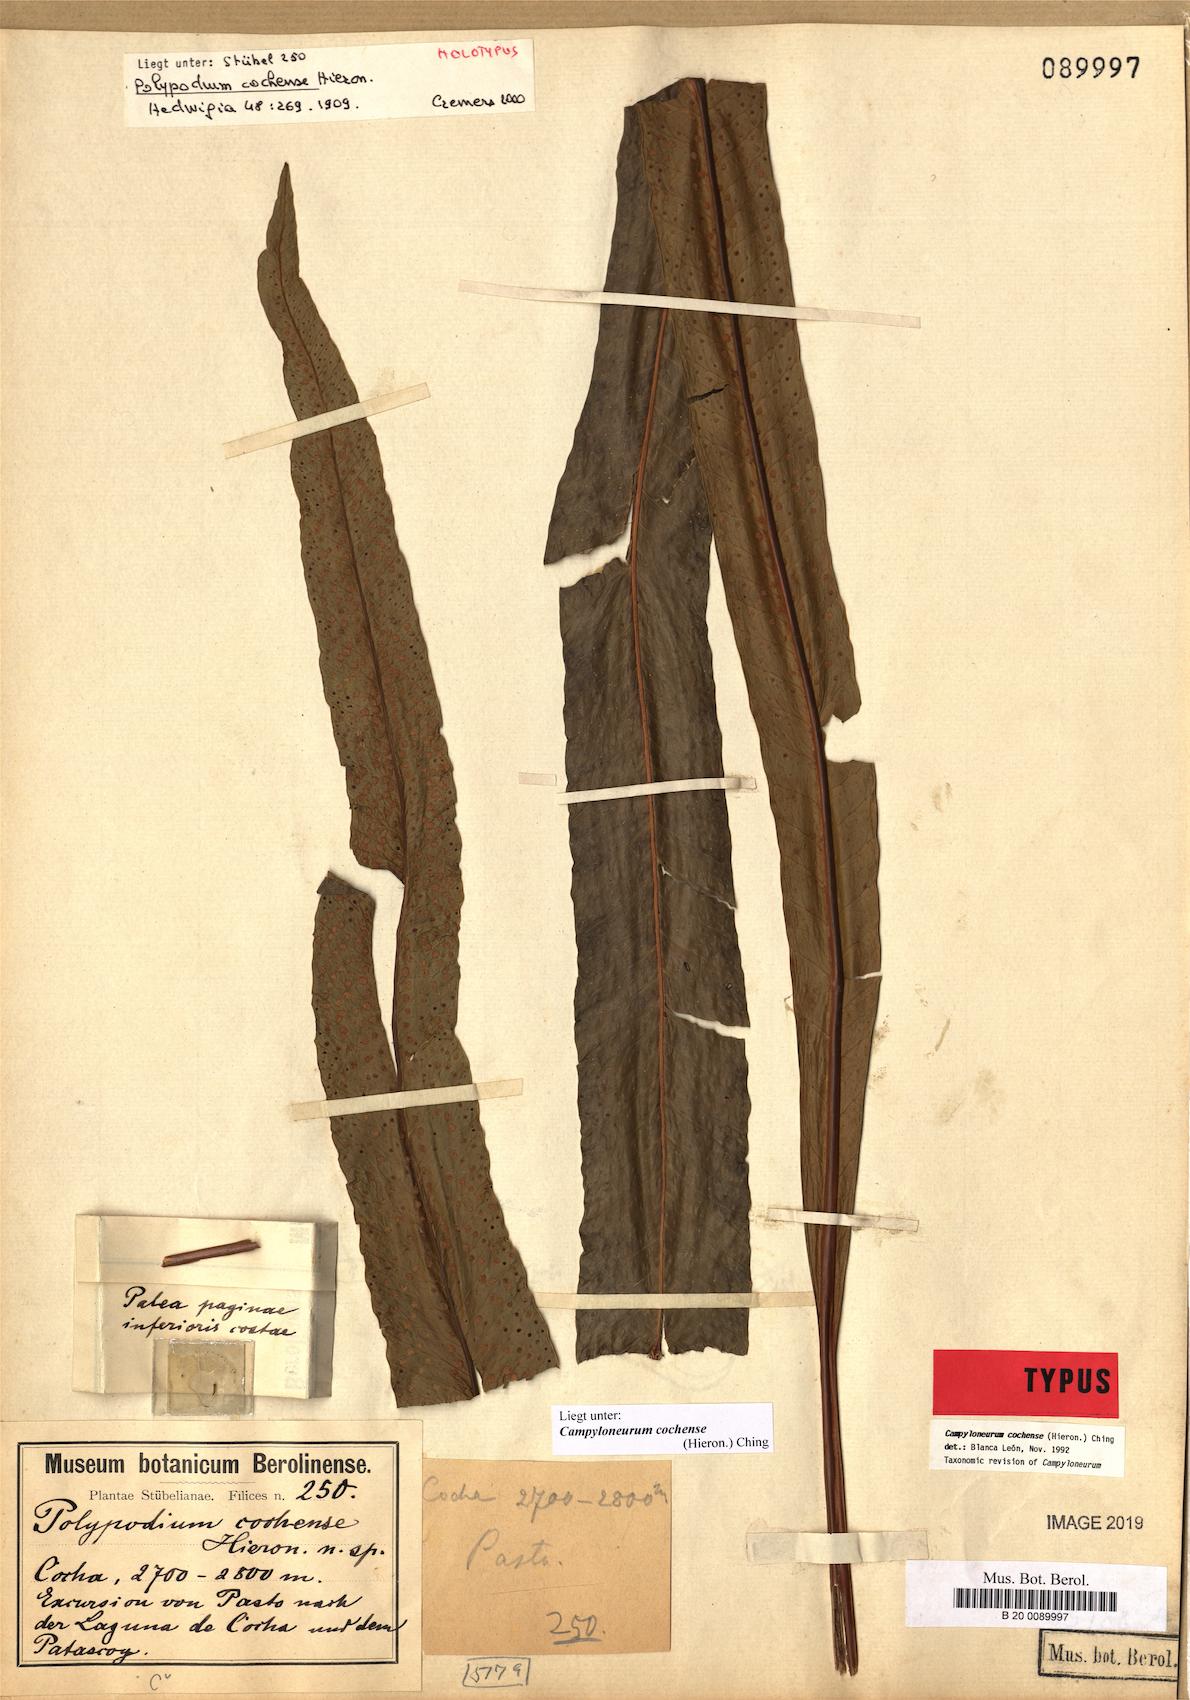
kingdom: Plantae
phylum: Tracheophyta
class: Polypodiopsida
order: Polypodiales
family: Polypodiaceae
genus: Campyloneurum
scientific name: Campyloneurum cochense
